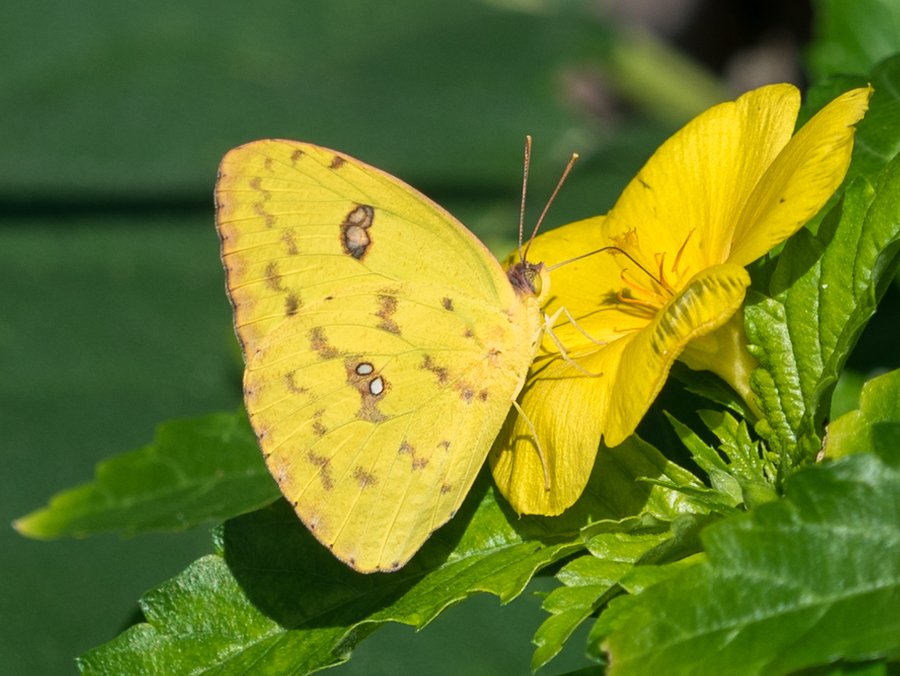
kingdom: Animalia
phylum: Arthropoda
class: Insecta
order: Lepidoptera
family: Pieridae
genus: Phoebis
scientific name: Phoebis sennae
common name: Cloudless Sulphur
